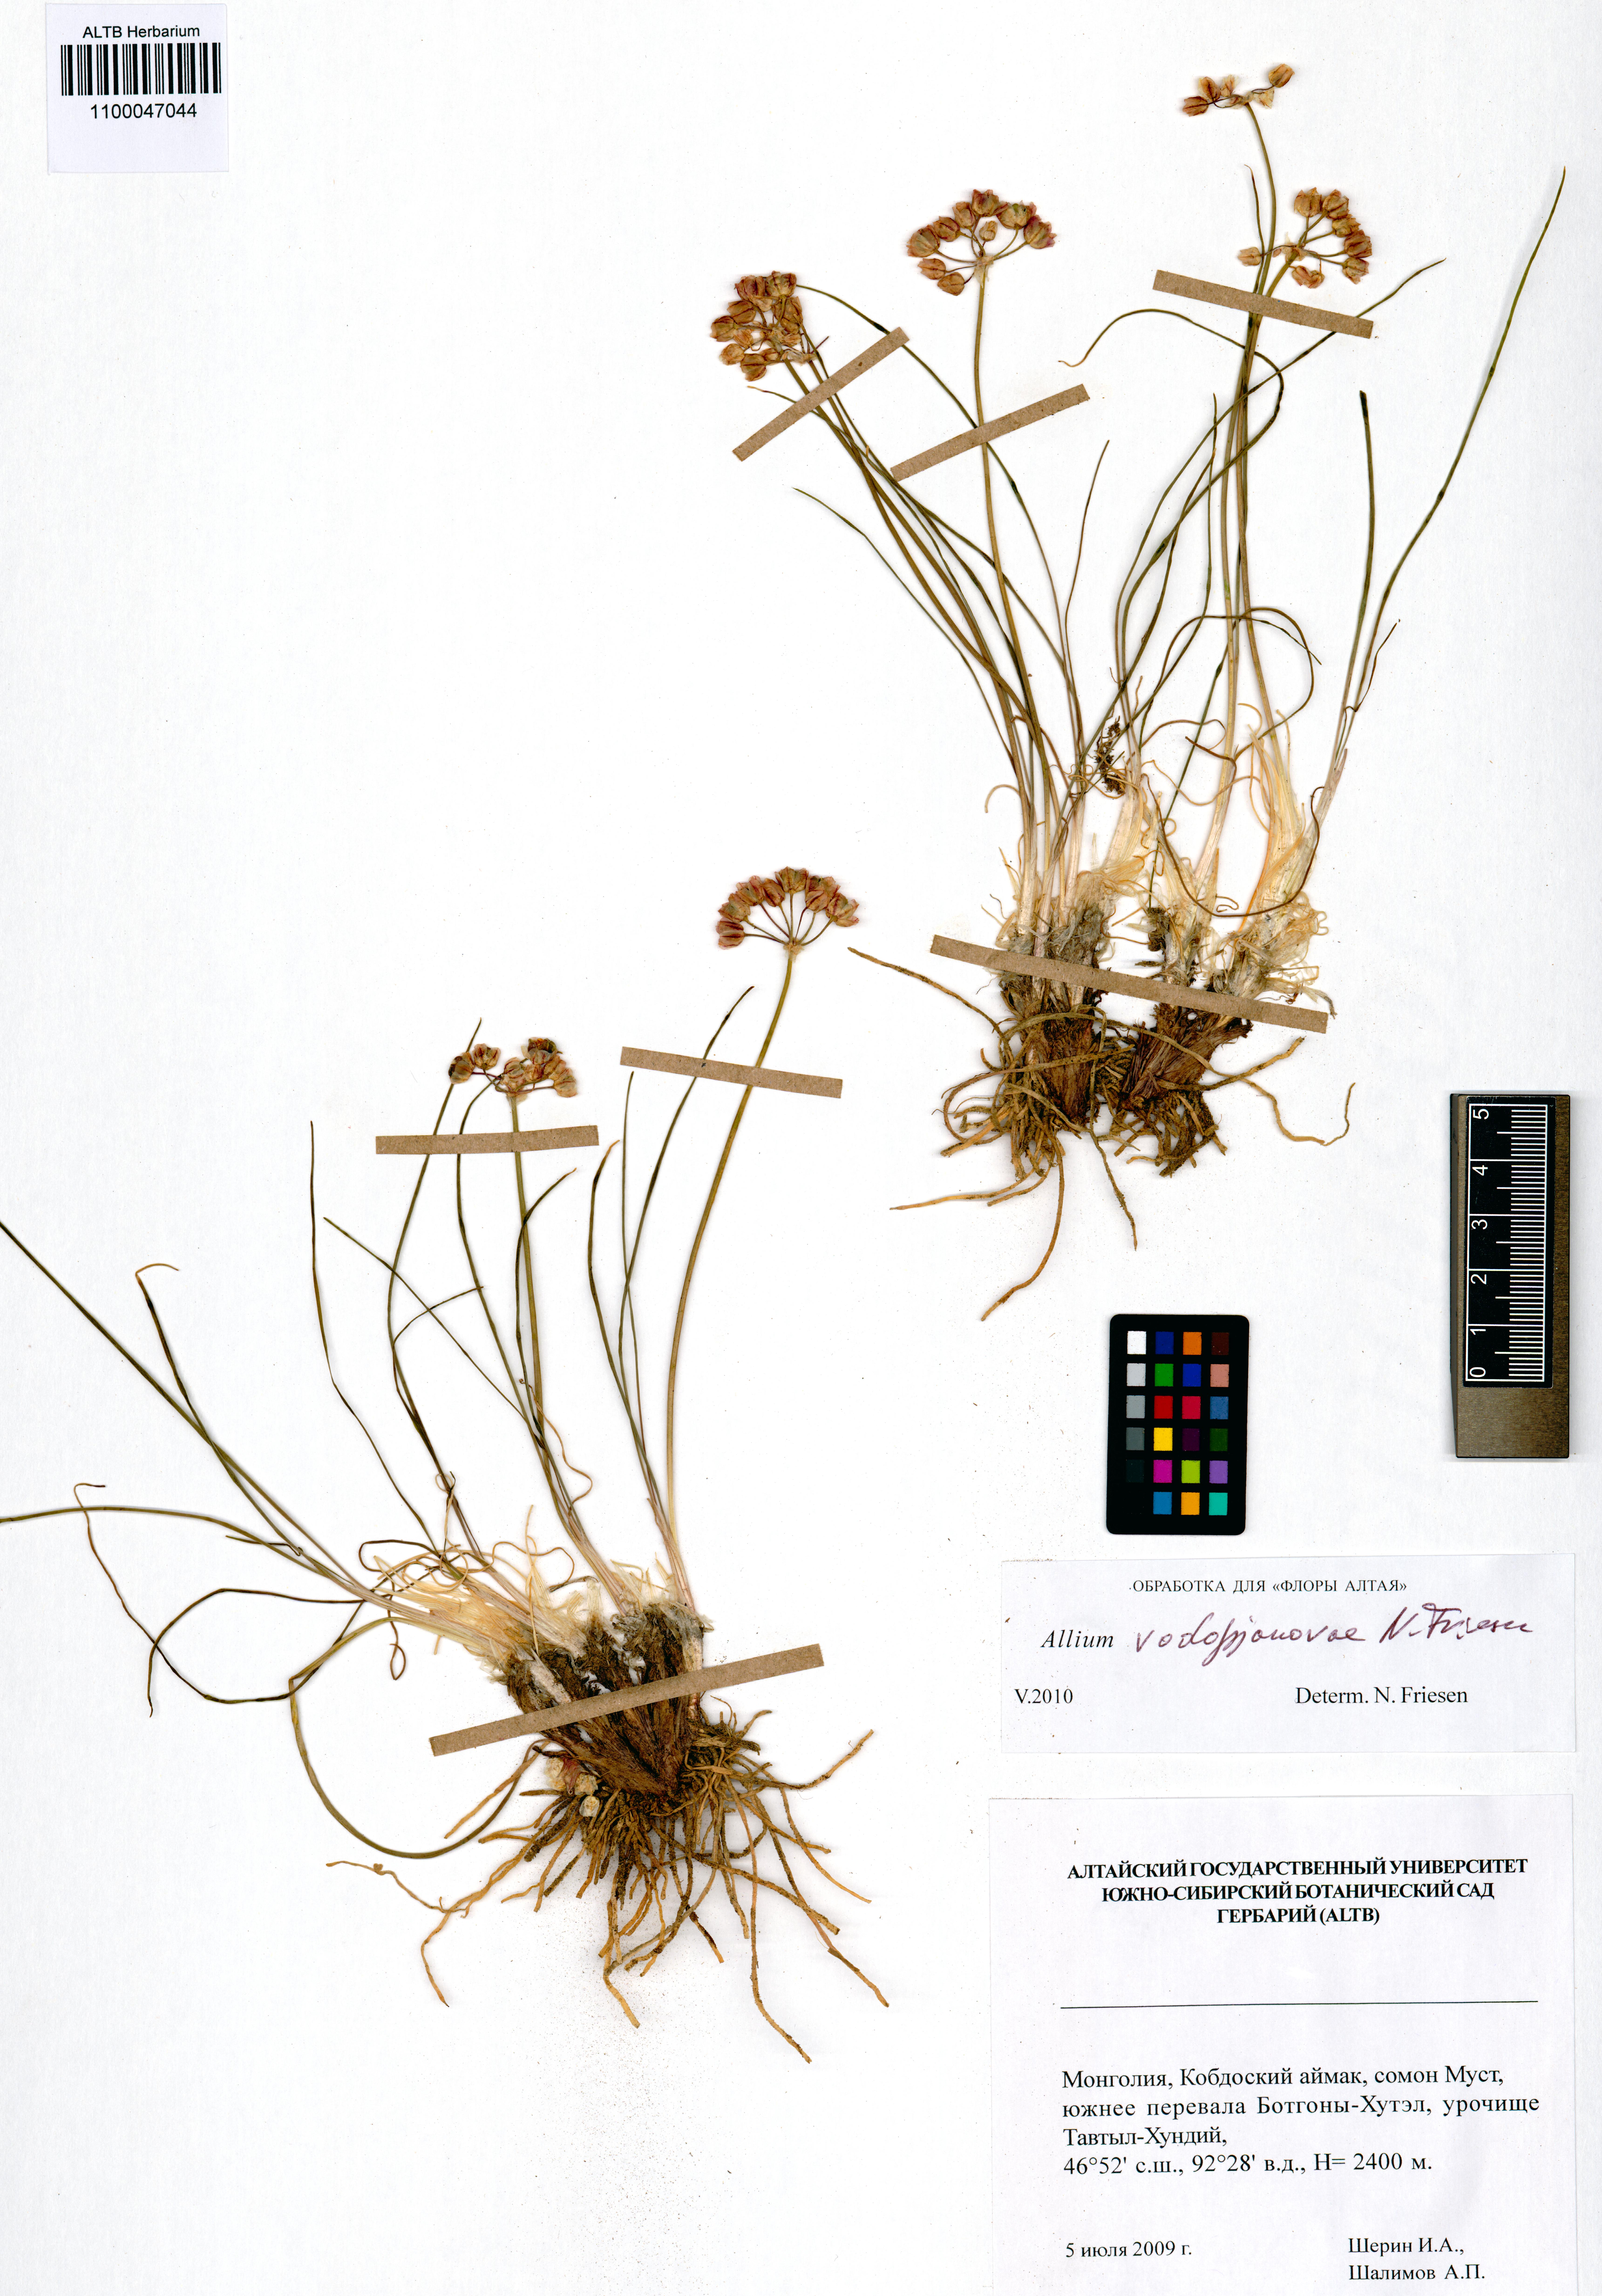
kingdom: Plantae
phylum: Tracheophyta
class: Liliopsida
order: Asparagales
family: Amaryllidaceae
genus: Allium
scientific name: Allium vodopjanovae
